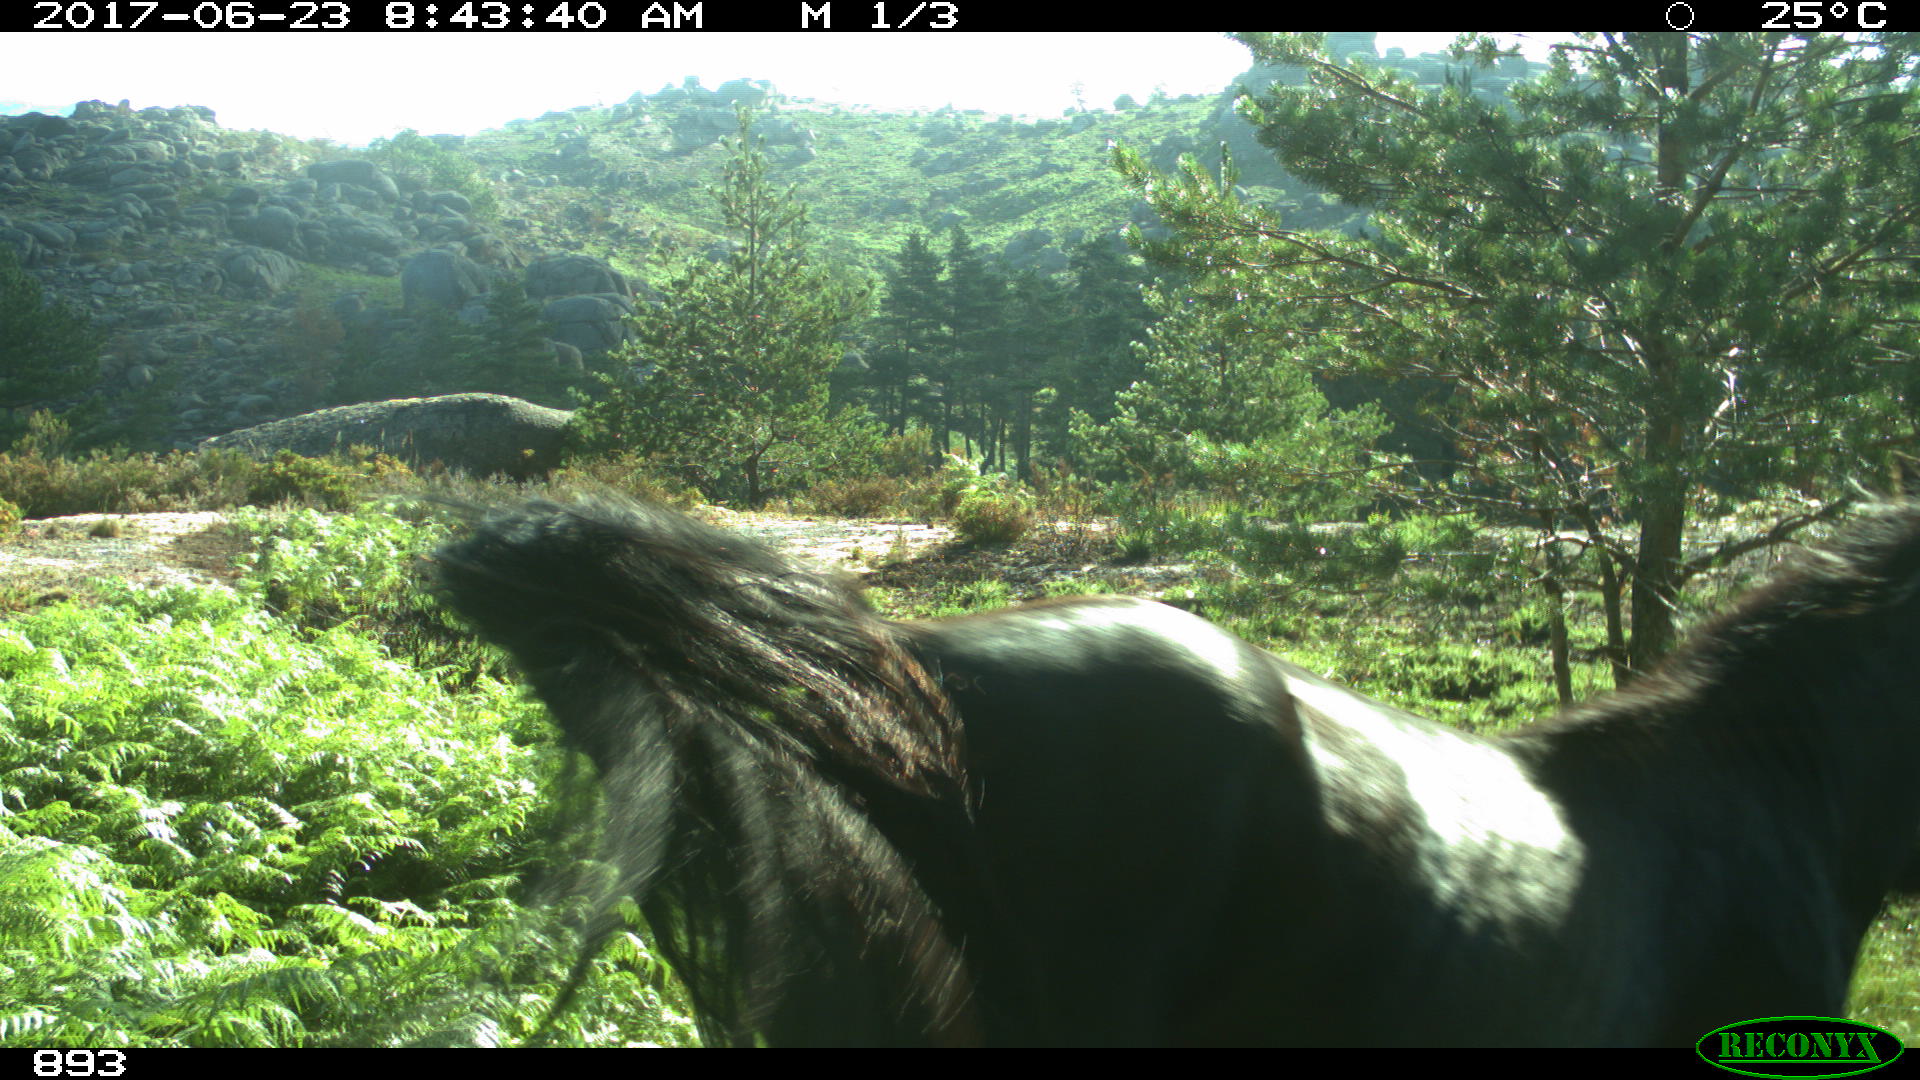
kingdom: Animalia
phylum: Chordata
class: Mammalia
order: Perissodactyla
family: Equidae
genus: Equus
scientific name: Equus caballus
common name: Horse
